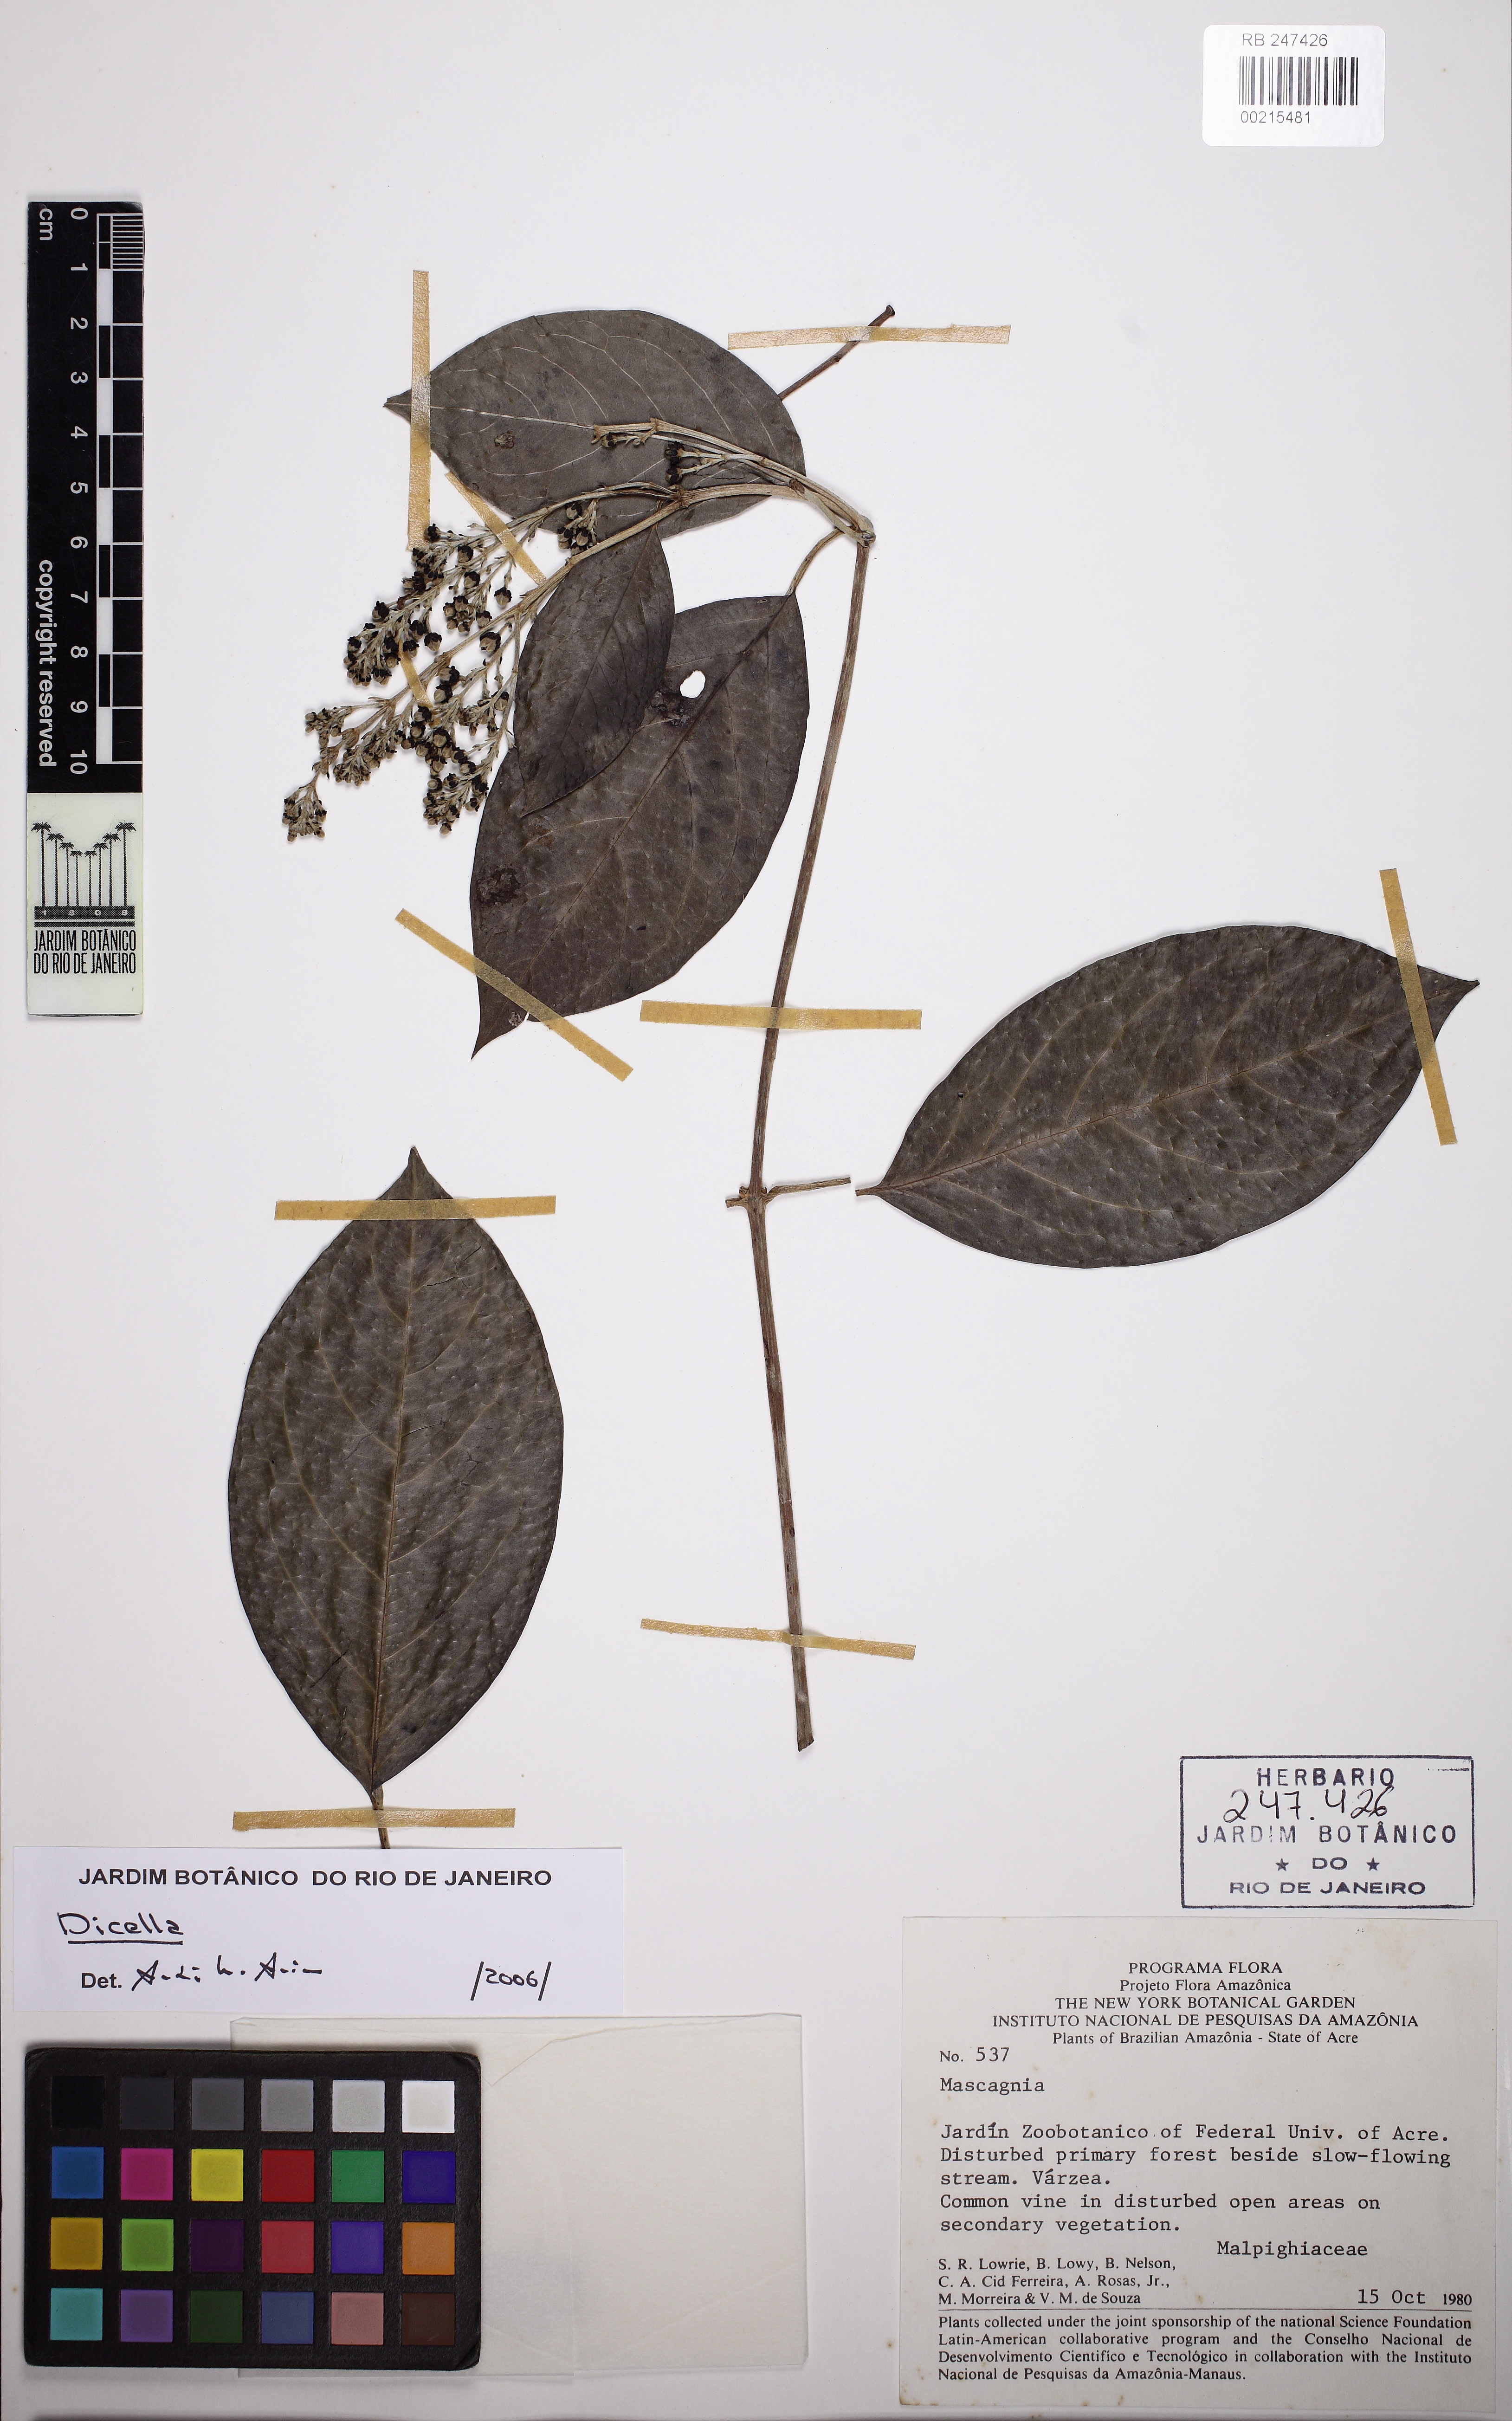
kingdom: Plantae
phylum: Tracheophyta
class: Magnoliopsida
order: Malpighiales
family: Malpighiaceae
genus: Alicia
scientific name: Alicia
